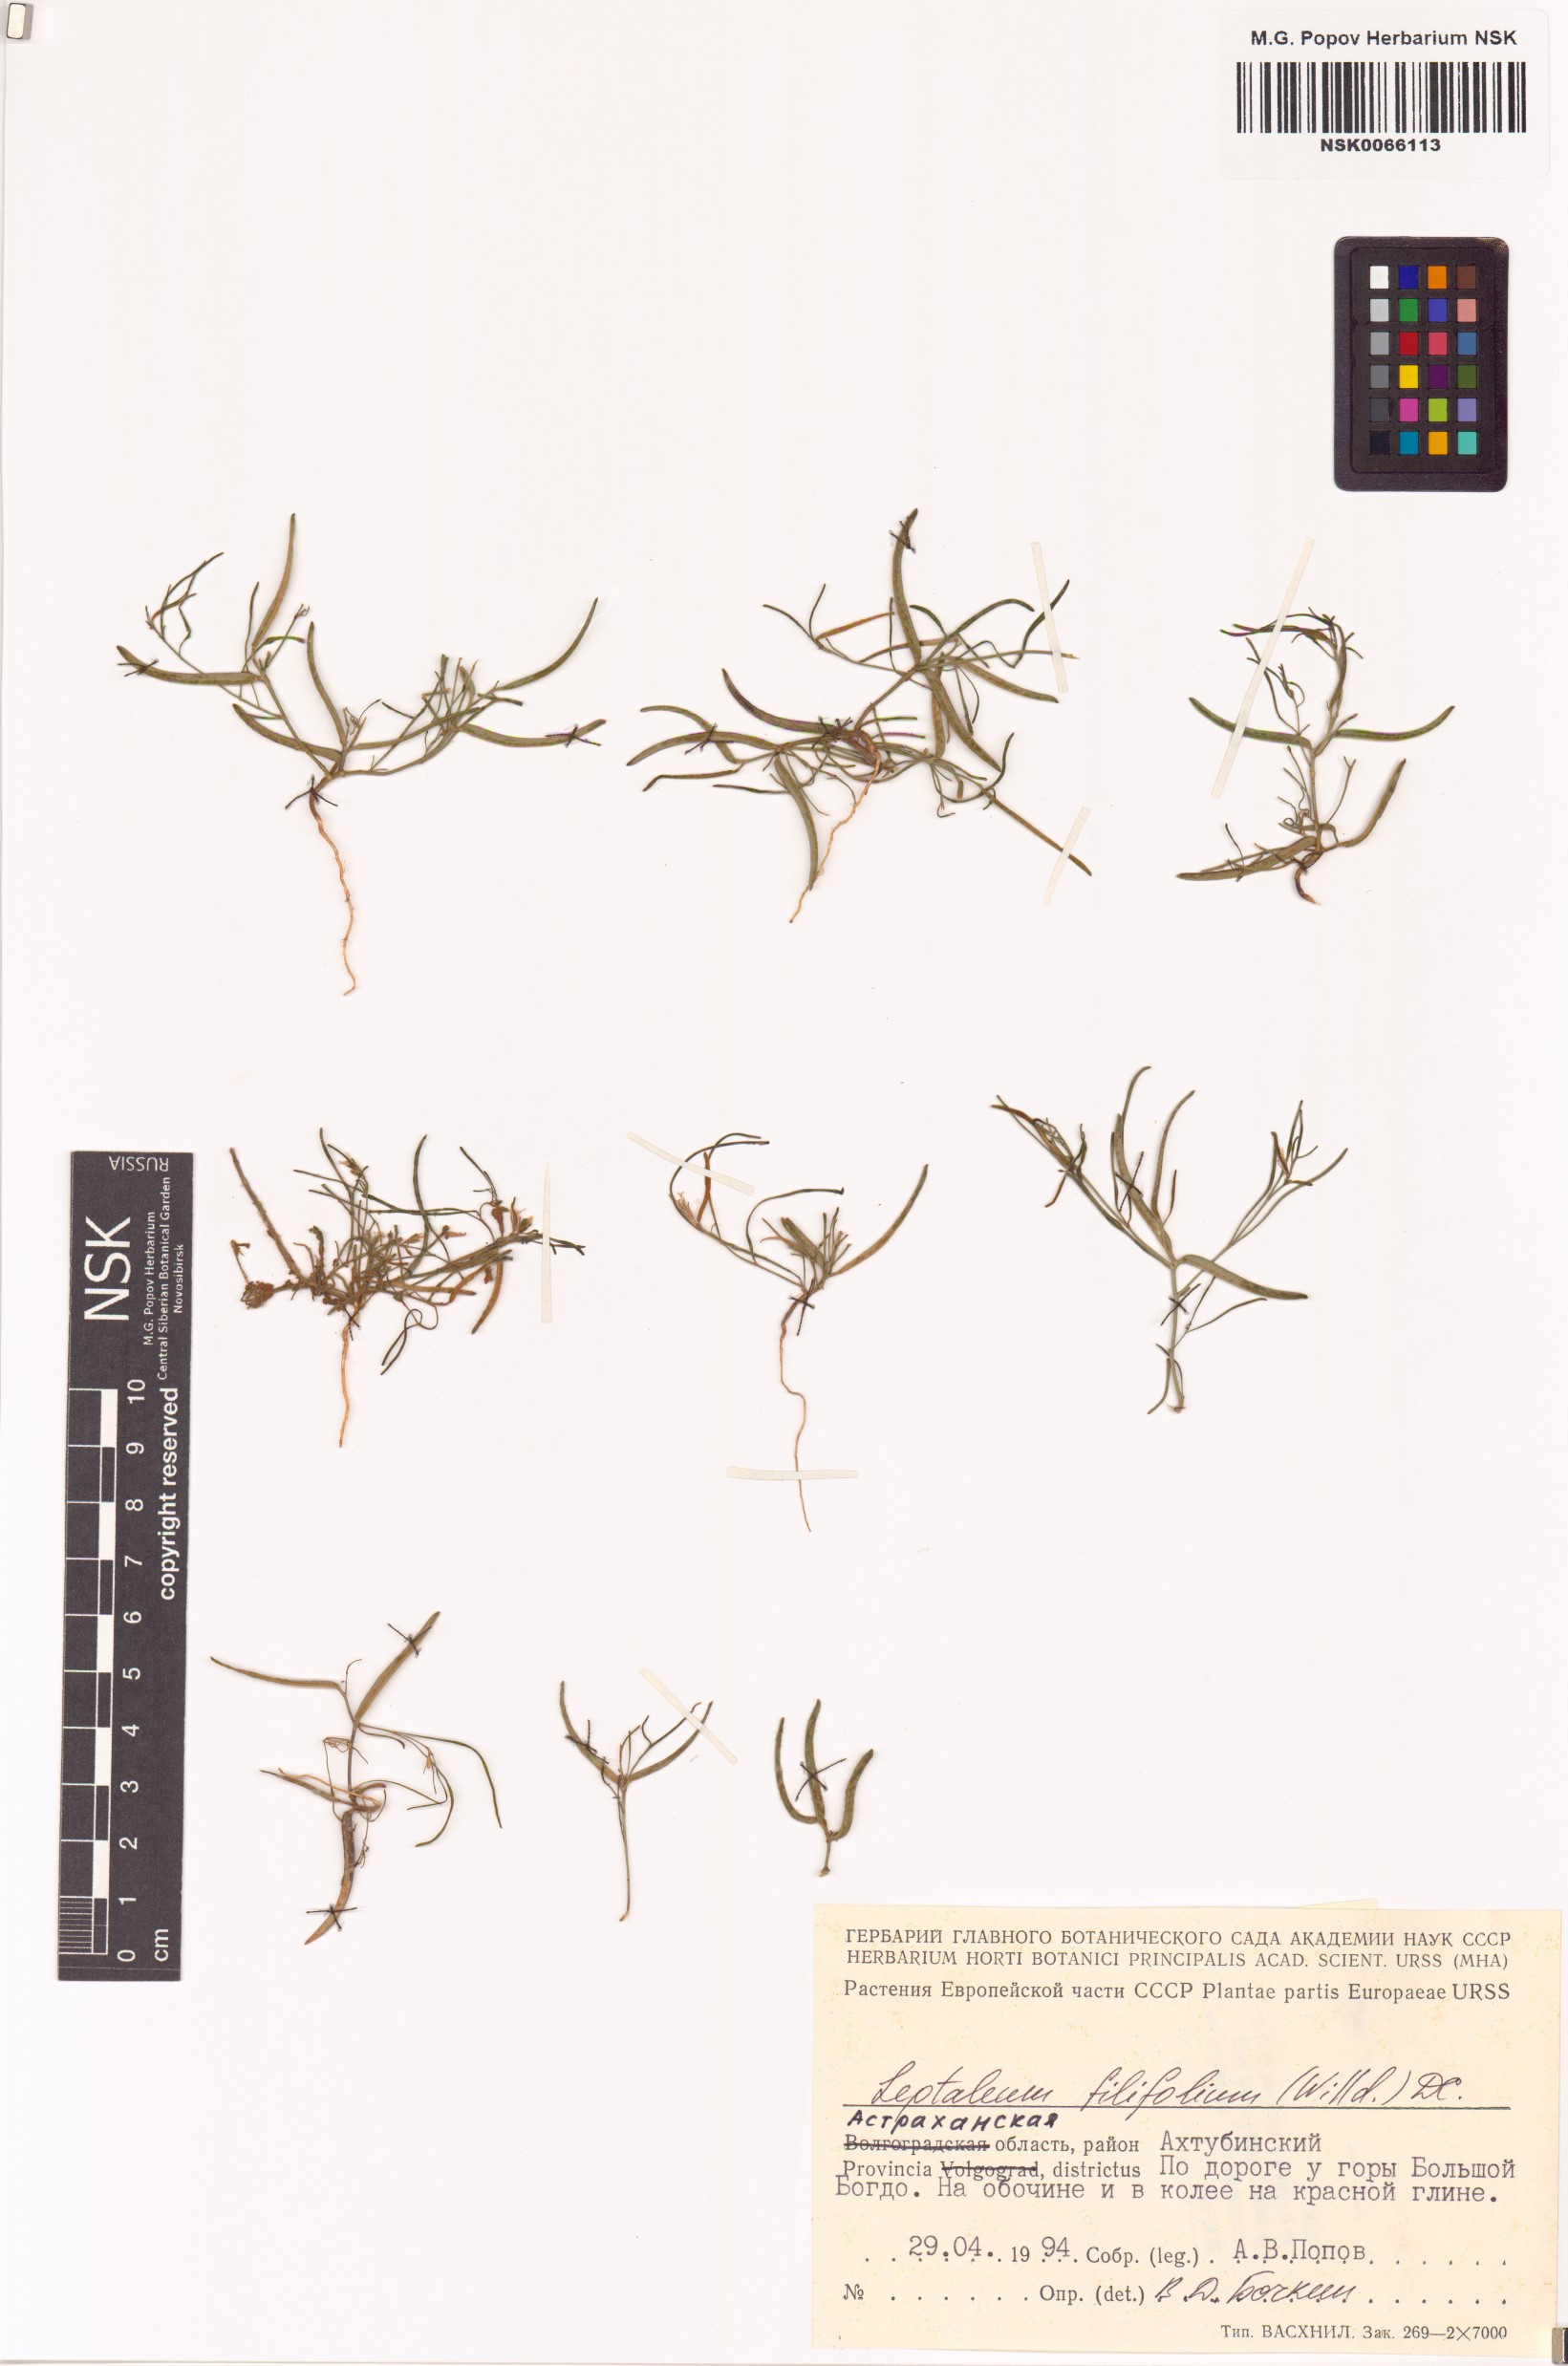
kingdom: Plantae
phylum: Tracheophyta
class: Magnoliopsida
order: Brassicales
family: Brassicaceae
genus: Leptaleum
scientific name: Leptaleum filifolium
